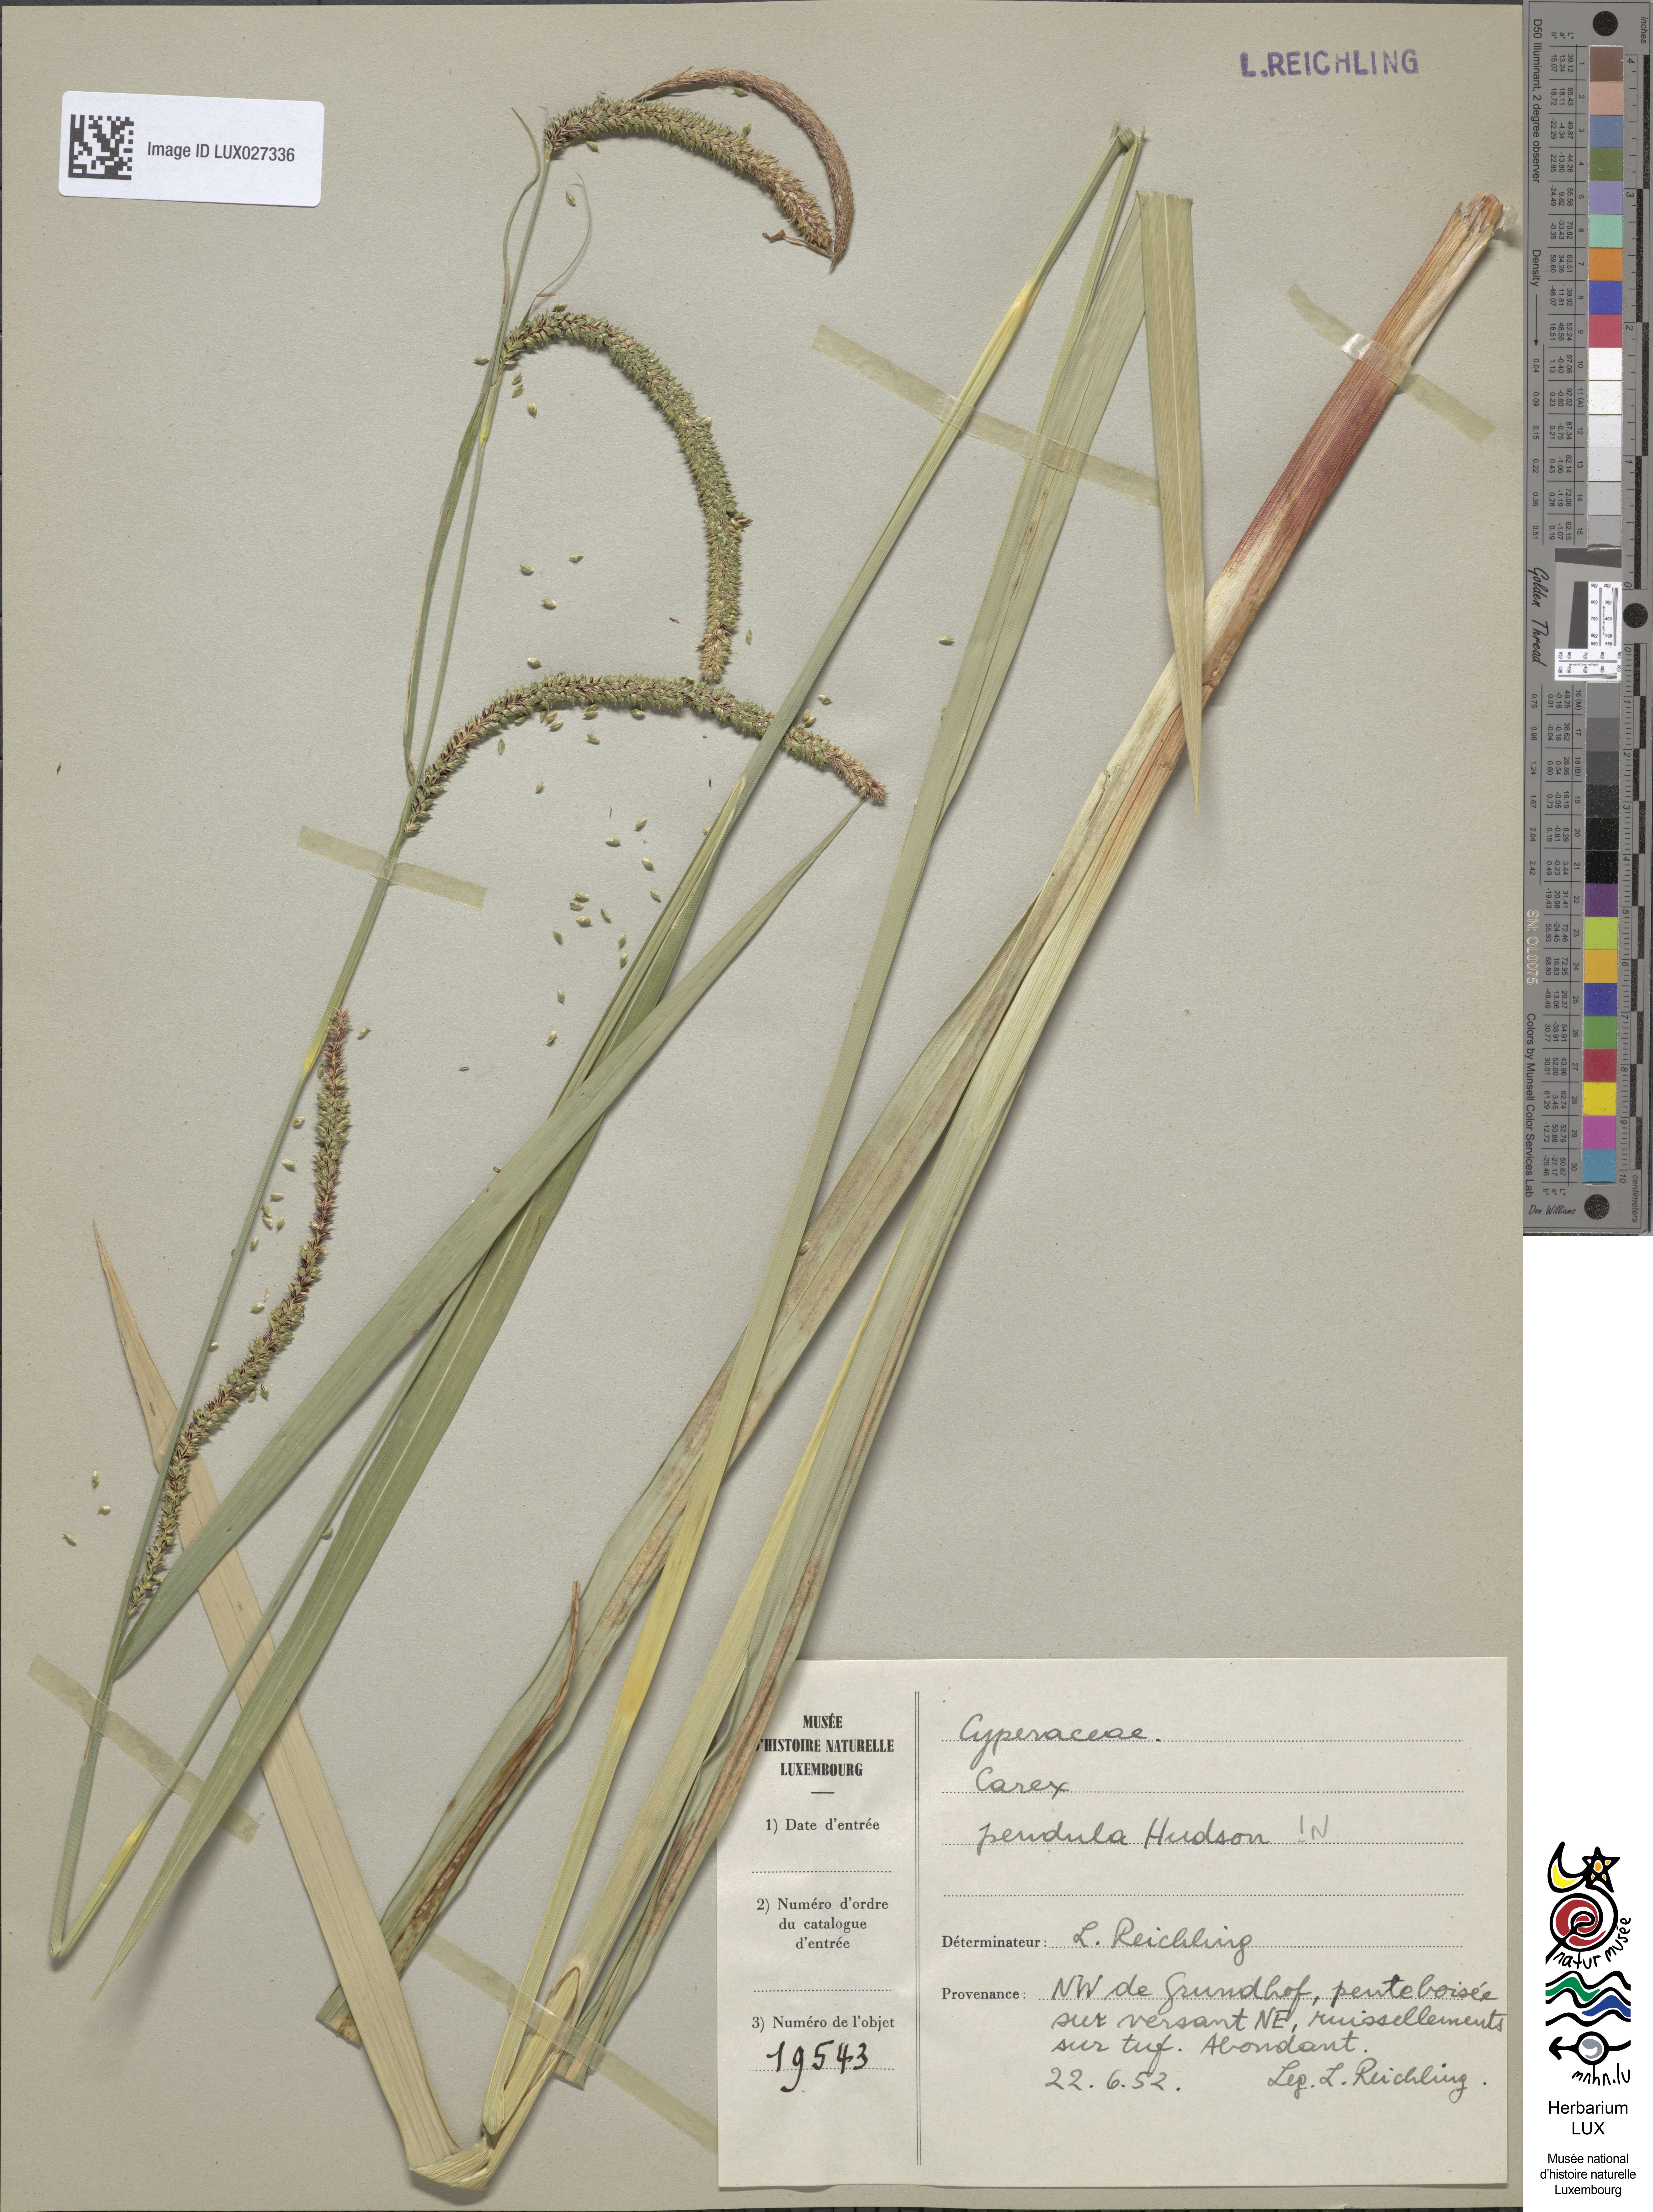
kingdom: Plantae
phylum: Tracheophyta
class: Liliopsida
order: Poales
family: Cyperaceae
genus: Carex
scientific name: Carex pendula
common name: Pendulous sedge
